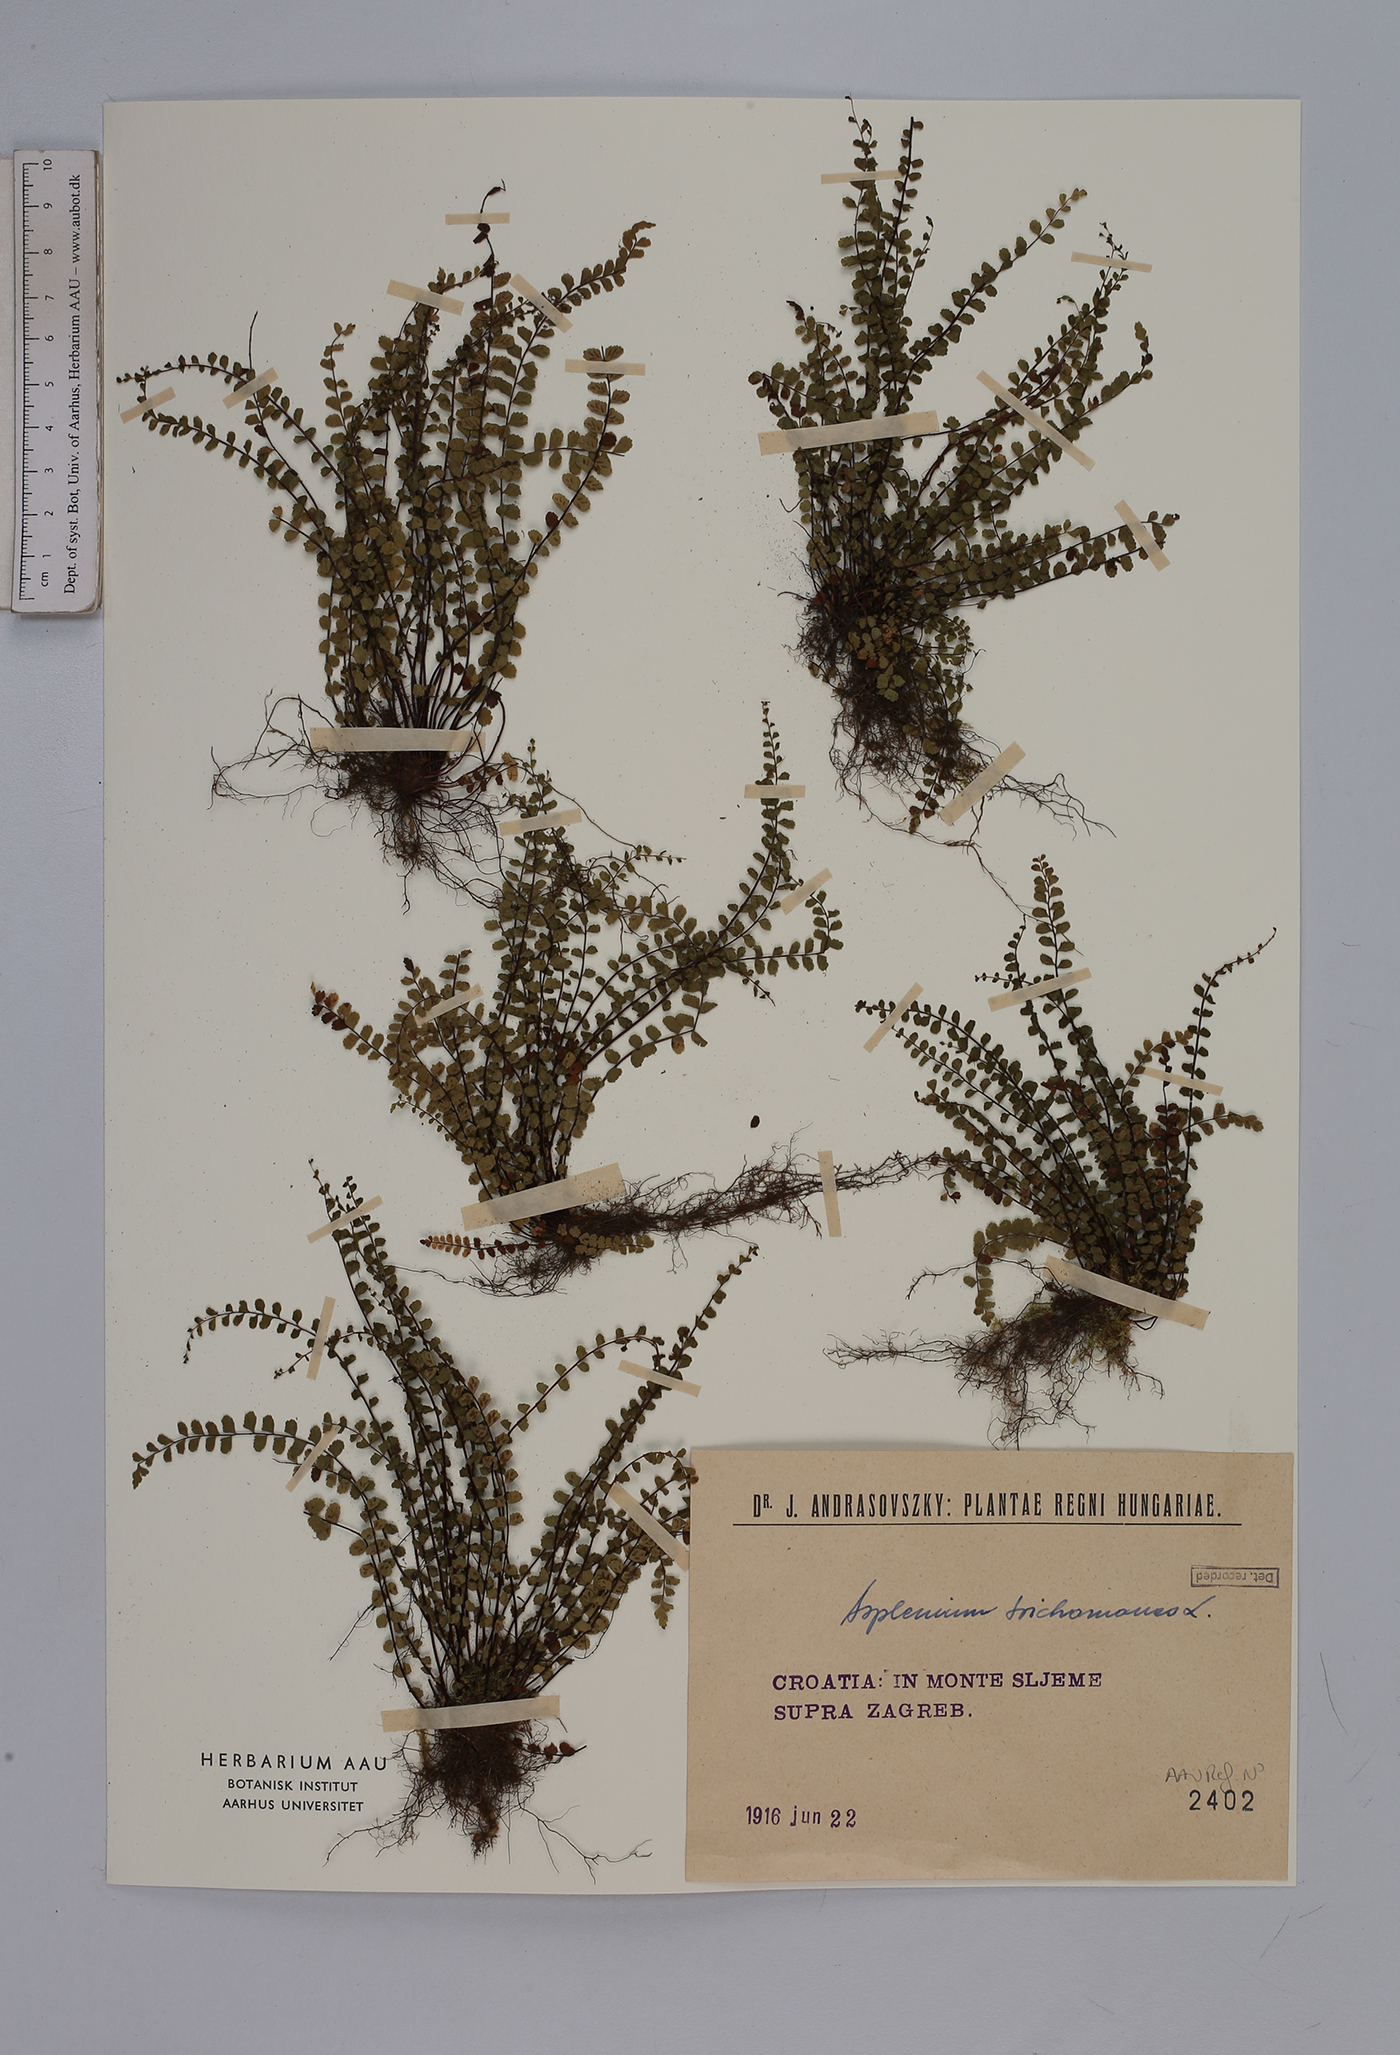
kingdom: Plantae
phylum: Tracheophyta
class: Polypodiopsida
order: Polypodiales
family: Aspleniaceae
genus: Asplenium
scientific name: Asplenium trichomanes
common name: Maidenhair spleenwort
